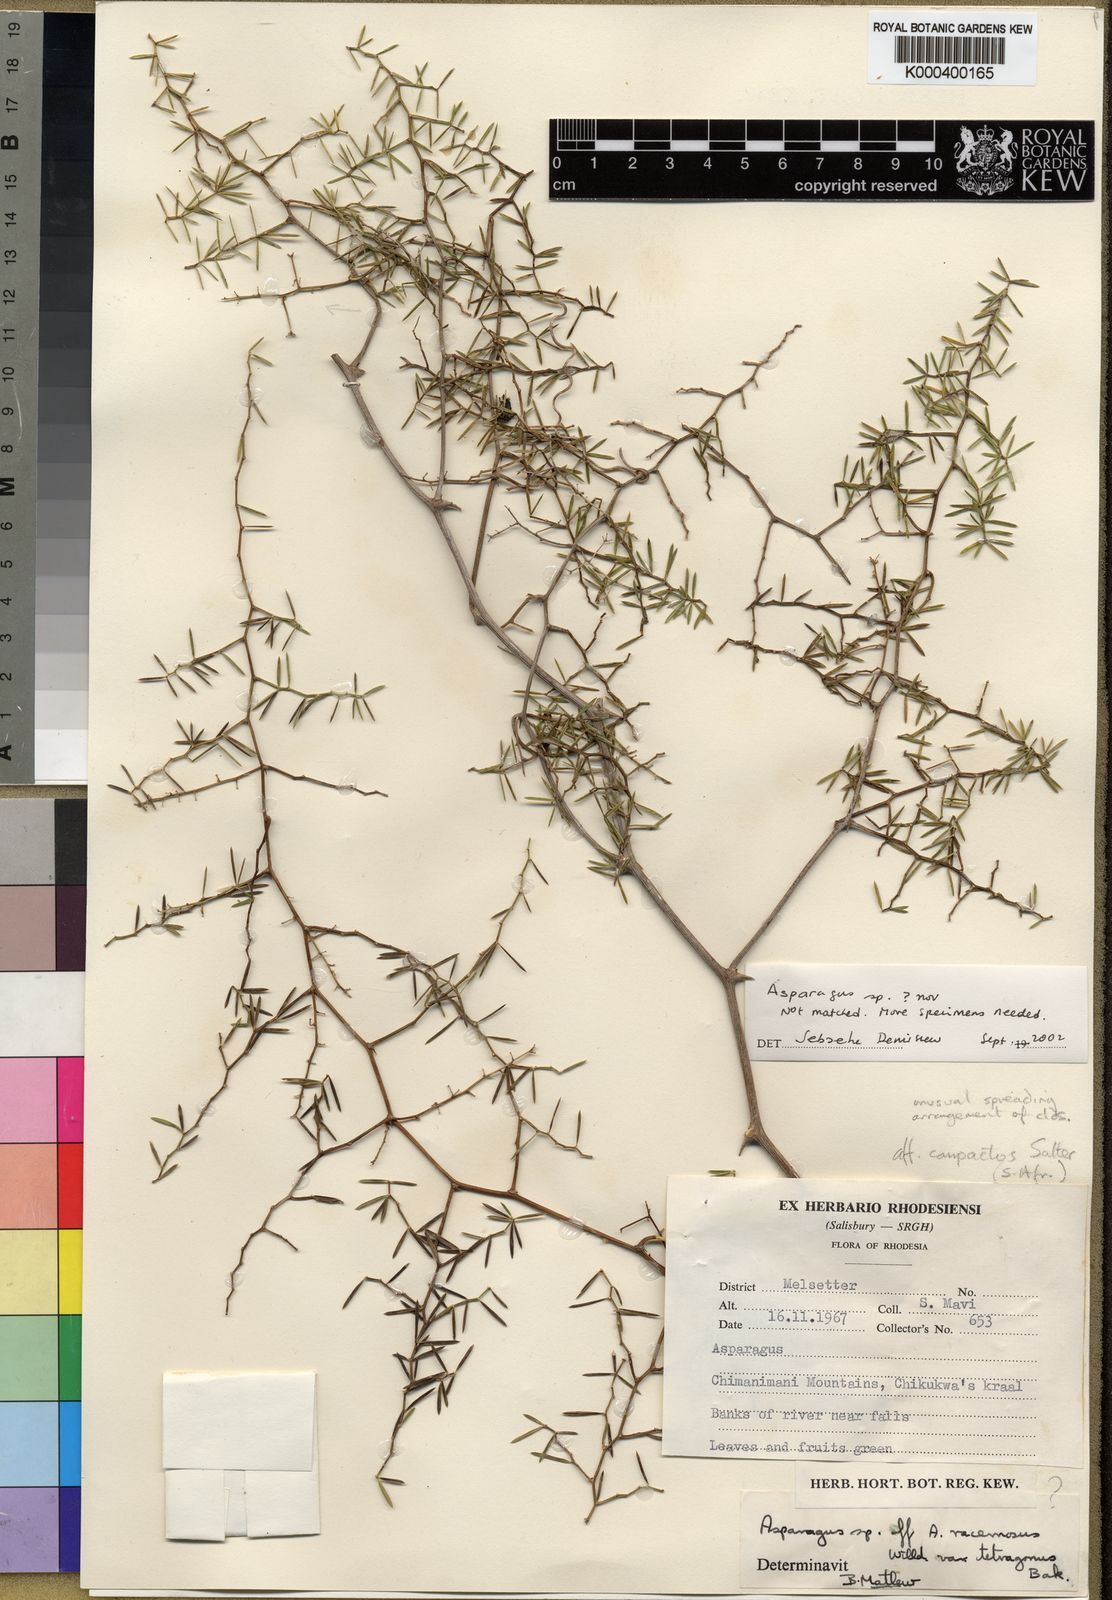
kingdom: Plantae
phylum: Tracheophyta
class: Liliopsida
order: Asparagales
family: Asparagaceae
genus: Asparagus
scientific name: Asparagus
